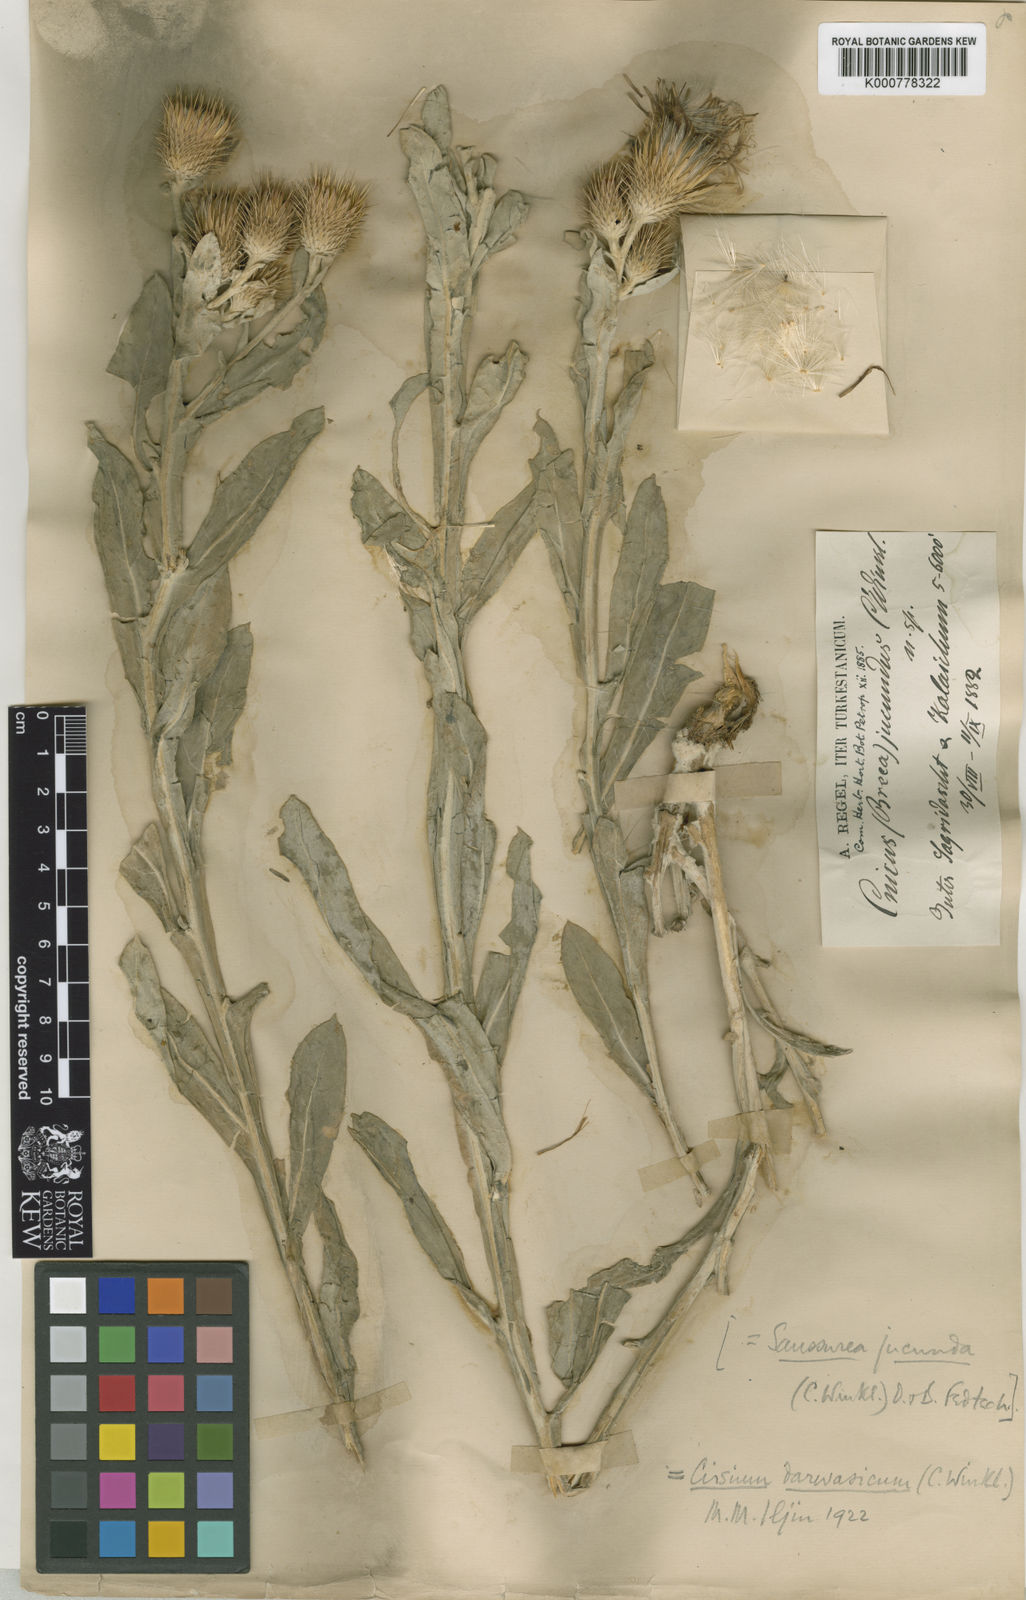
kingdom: Plantae
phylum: Tracheophyta
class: Magnoliopsida
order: Asterales
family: Asteraceae
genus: Ancathia
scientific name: Ancathia
